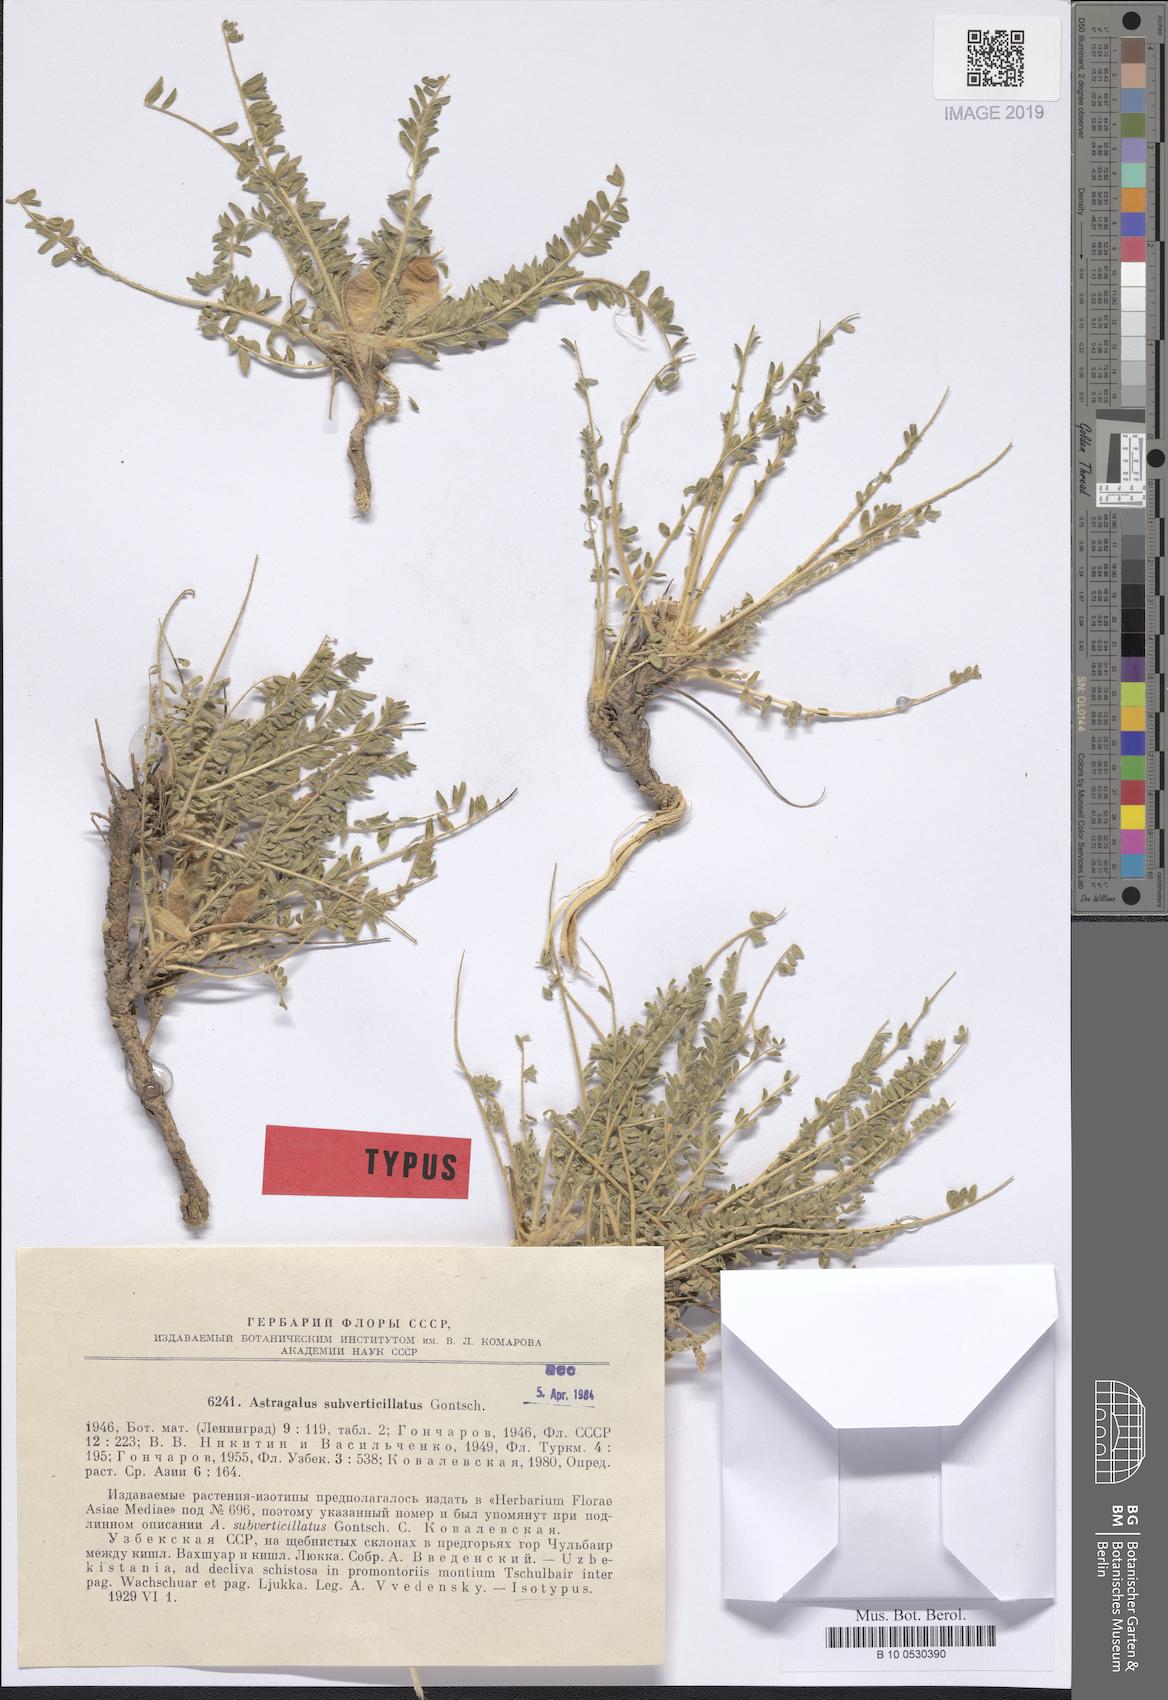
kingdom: Plantae
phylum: Tracheophyta
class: Magnoliopsida
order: Fabales
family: Fabaceae
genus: Astragalus
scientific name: Astragalus subverticillatus
